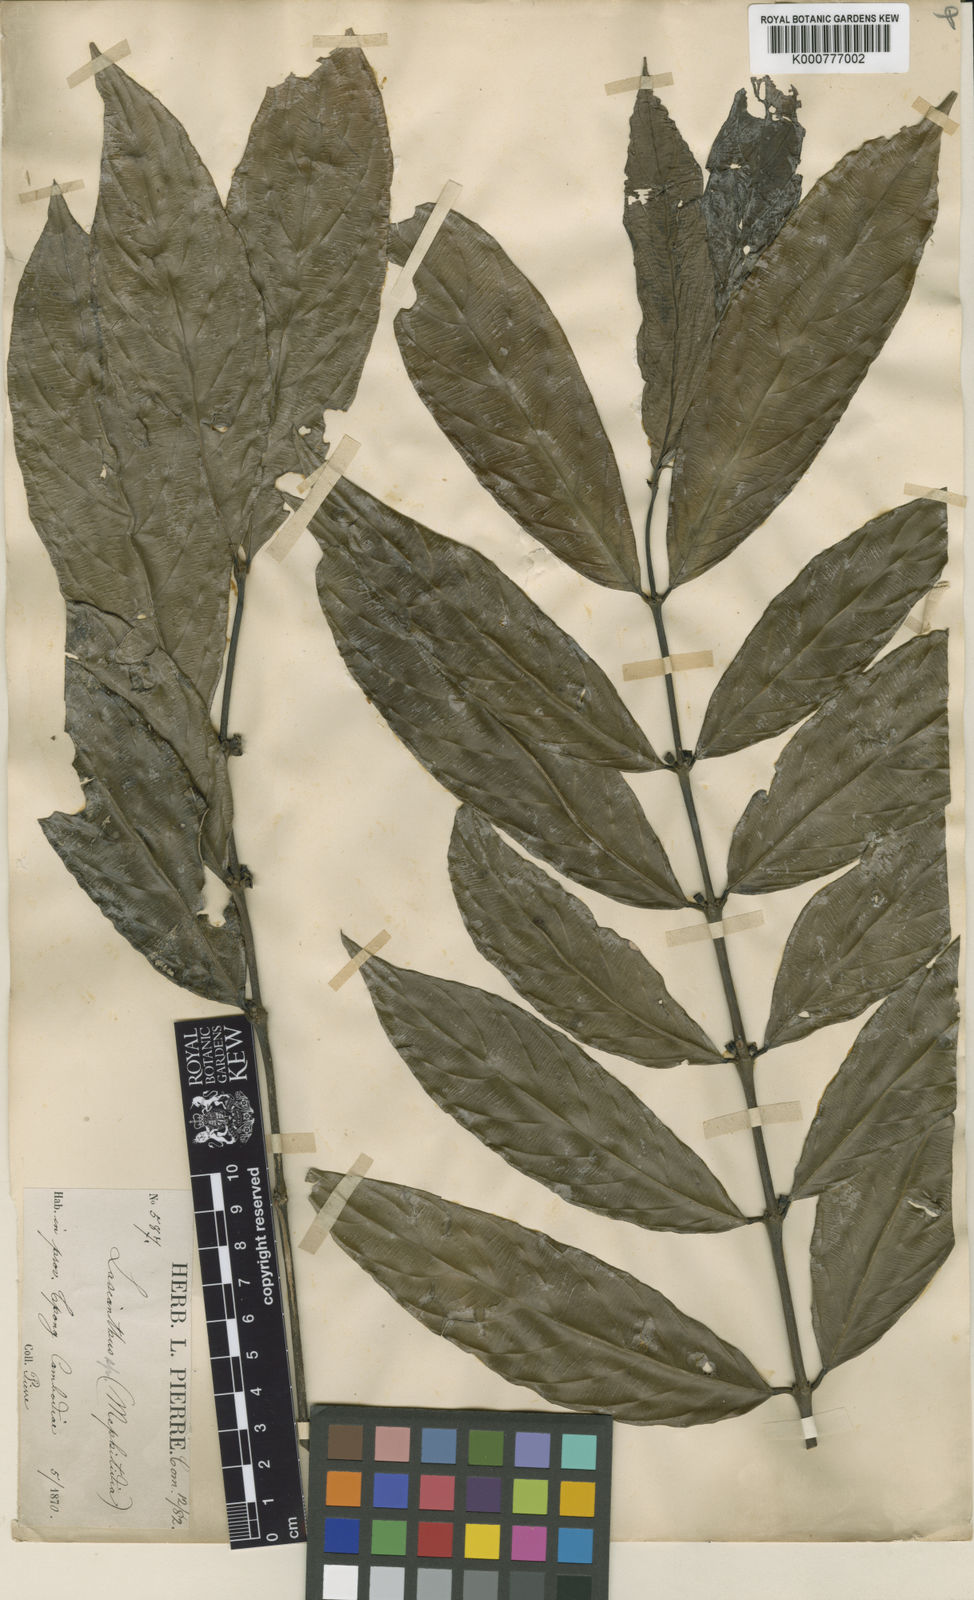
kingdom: Plantae
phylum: Tracheophyta
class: Magnoliopsida
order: Gentianales
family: Rubiaceae
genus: Lasianthus
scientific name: Lasianthus verticillatus
